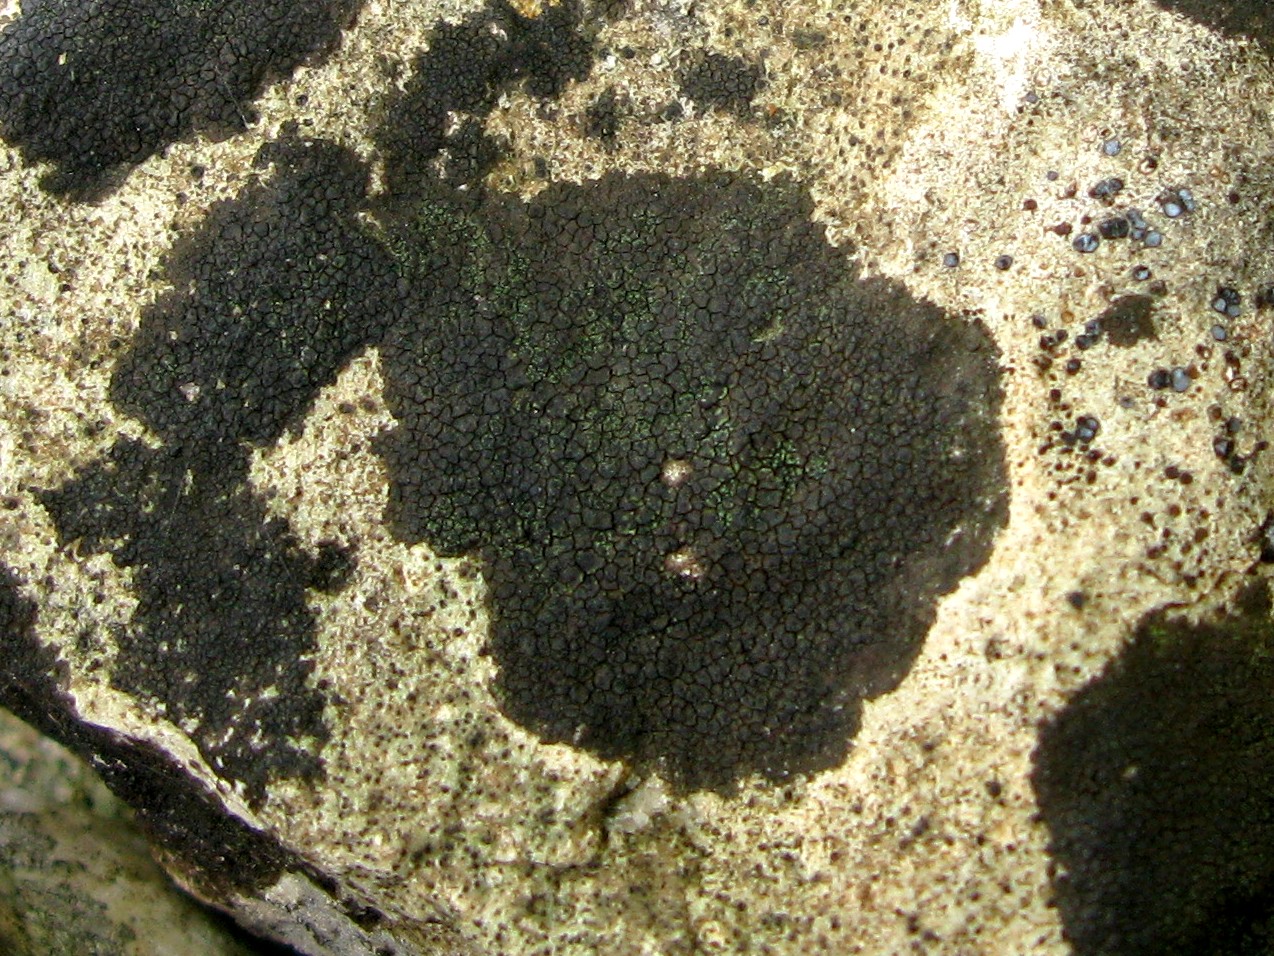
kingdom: Fungi
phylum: Ascomycota
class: Eurotiomycetes
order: Verrucariales
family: Verrucariaceae
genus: Verrucaria
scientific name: Verrucaria nigrescens
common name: sortbrun vortelav
